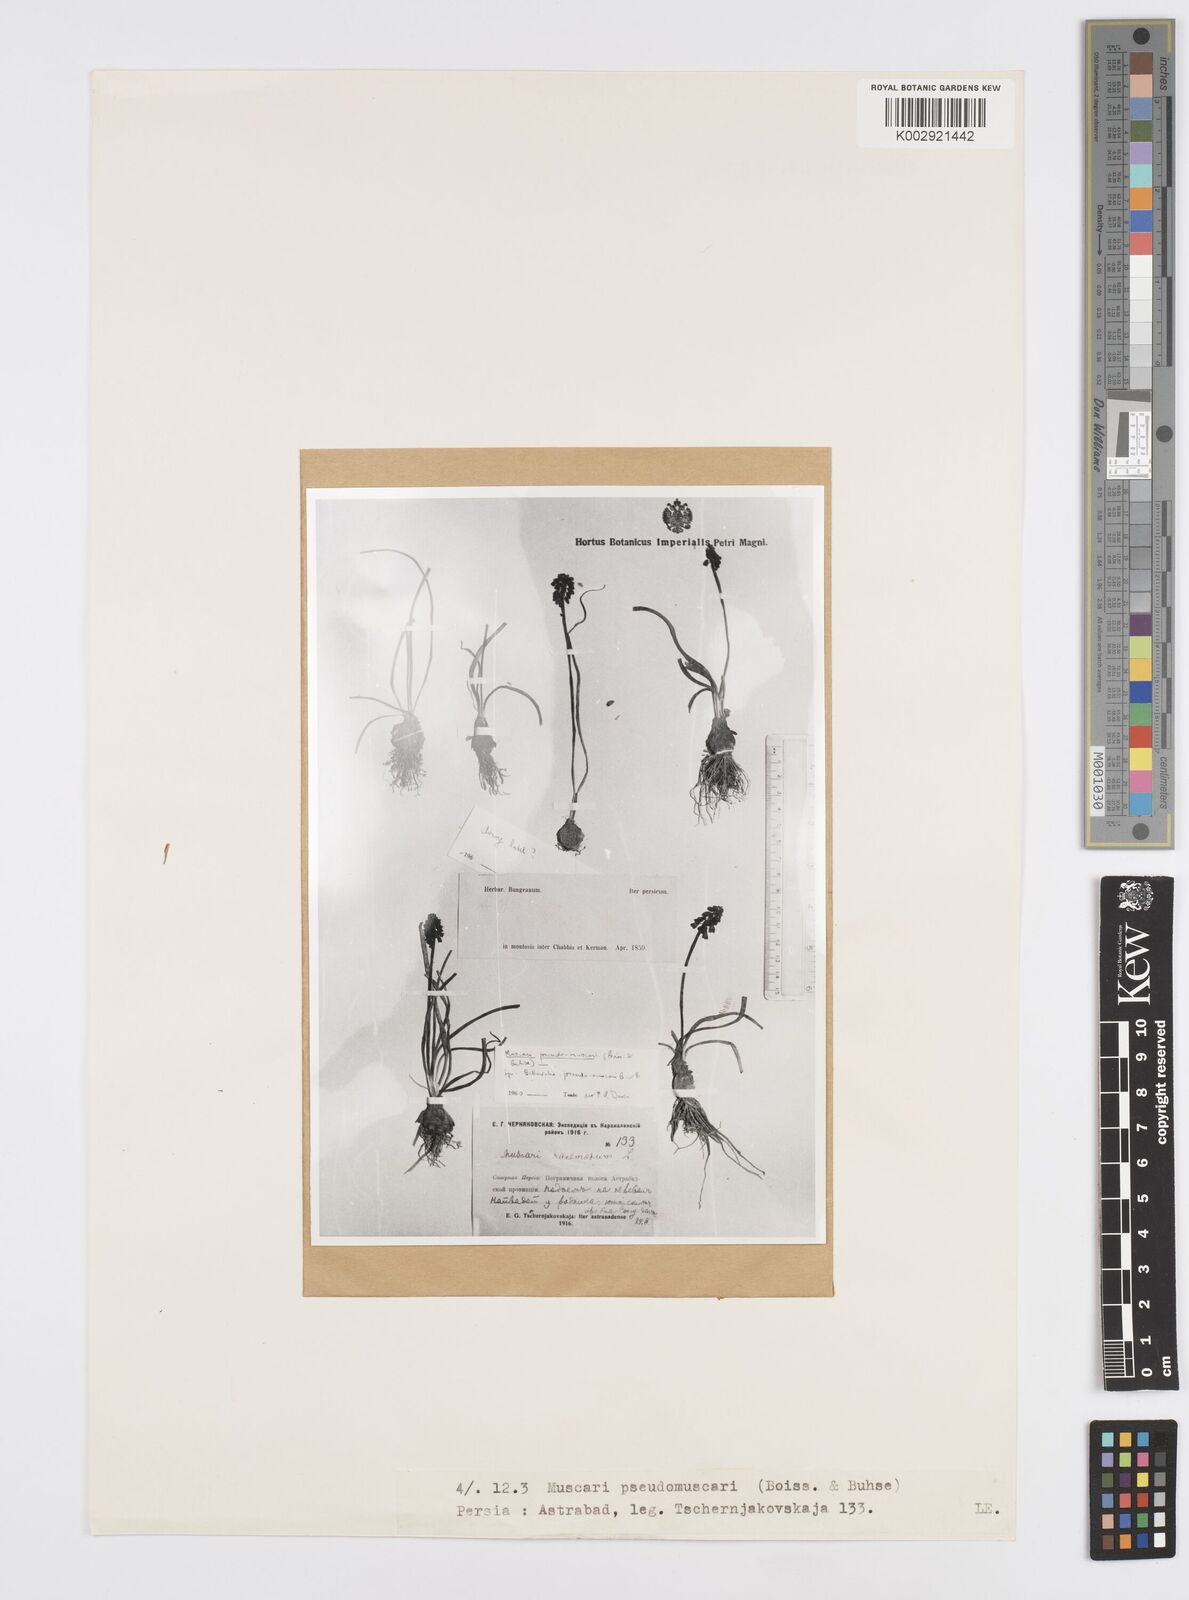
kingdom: Plantae
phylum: Tracheophyta
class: Liliopsida
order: Asparagales
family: Asparagaceae
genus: Muscari
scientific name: Muscari
